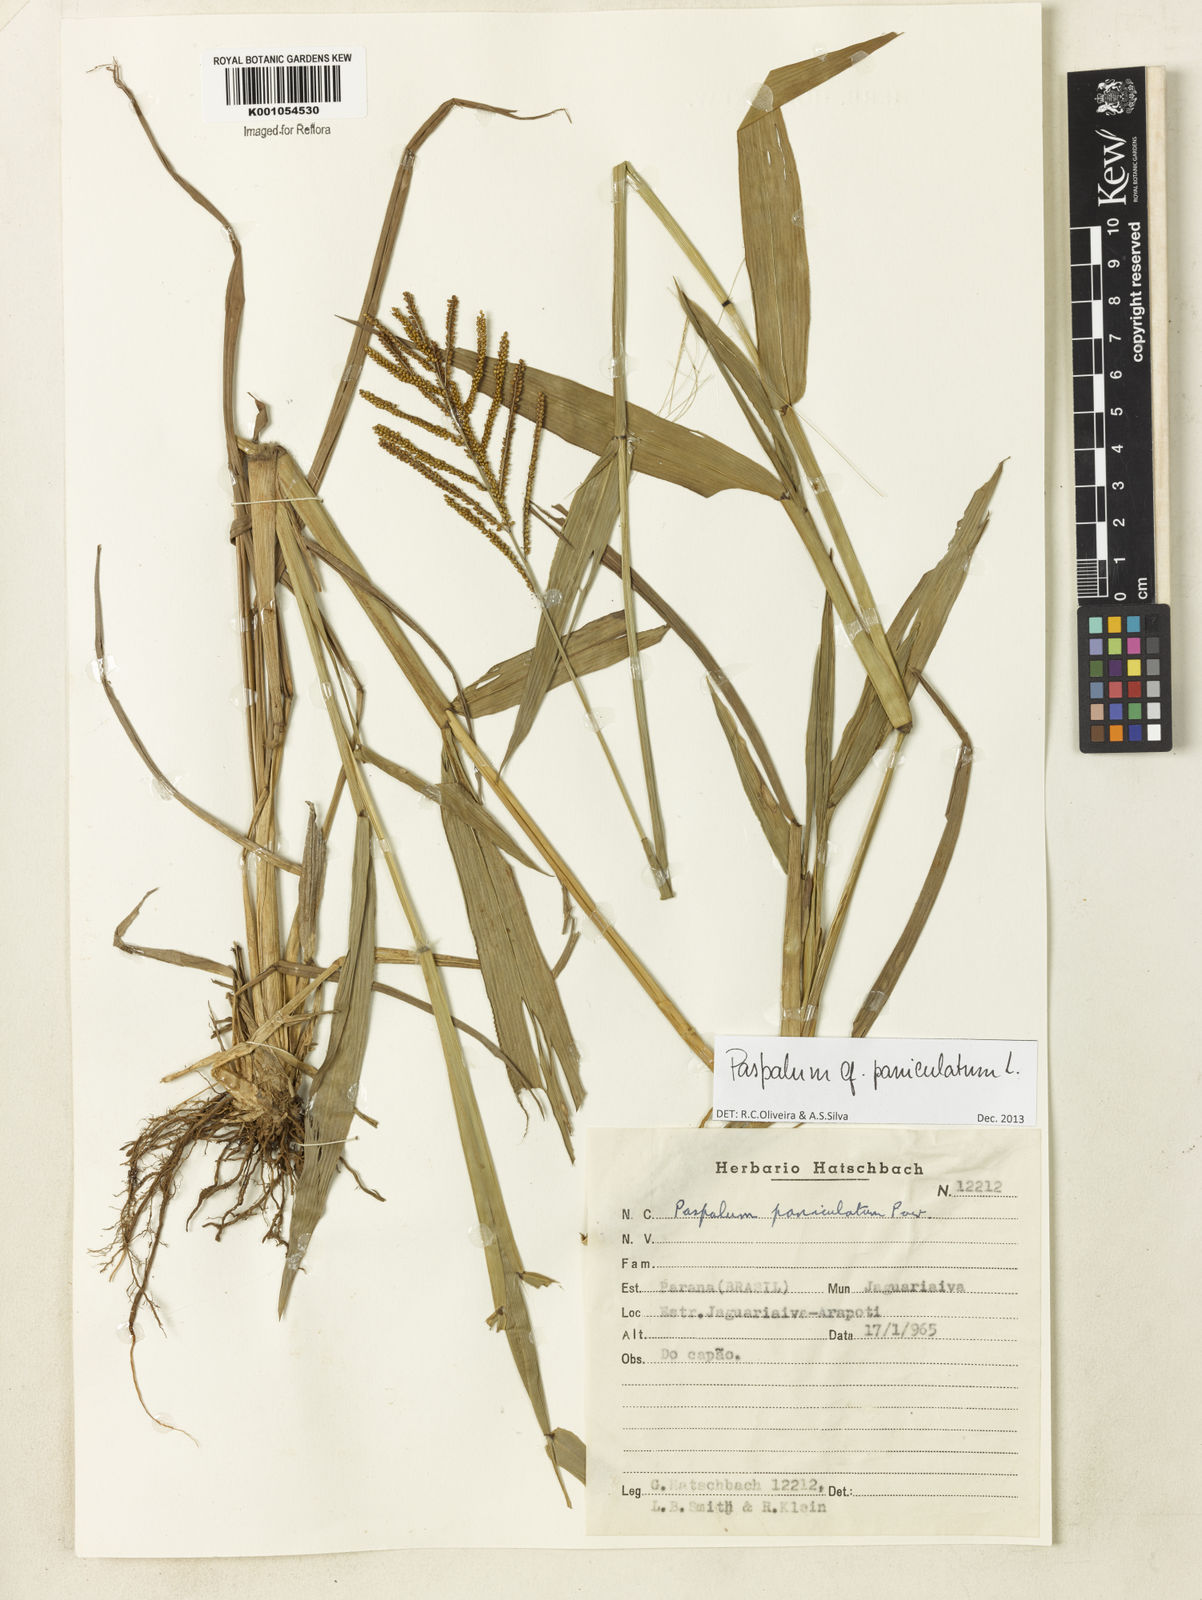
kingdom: Plantae
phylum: Tracheophyta
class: Liliopsida
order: Poales
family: Poaceae
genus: Paspalum
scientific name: Paspalum paniculatum
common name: Arrocillo
